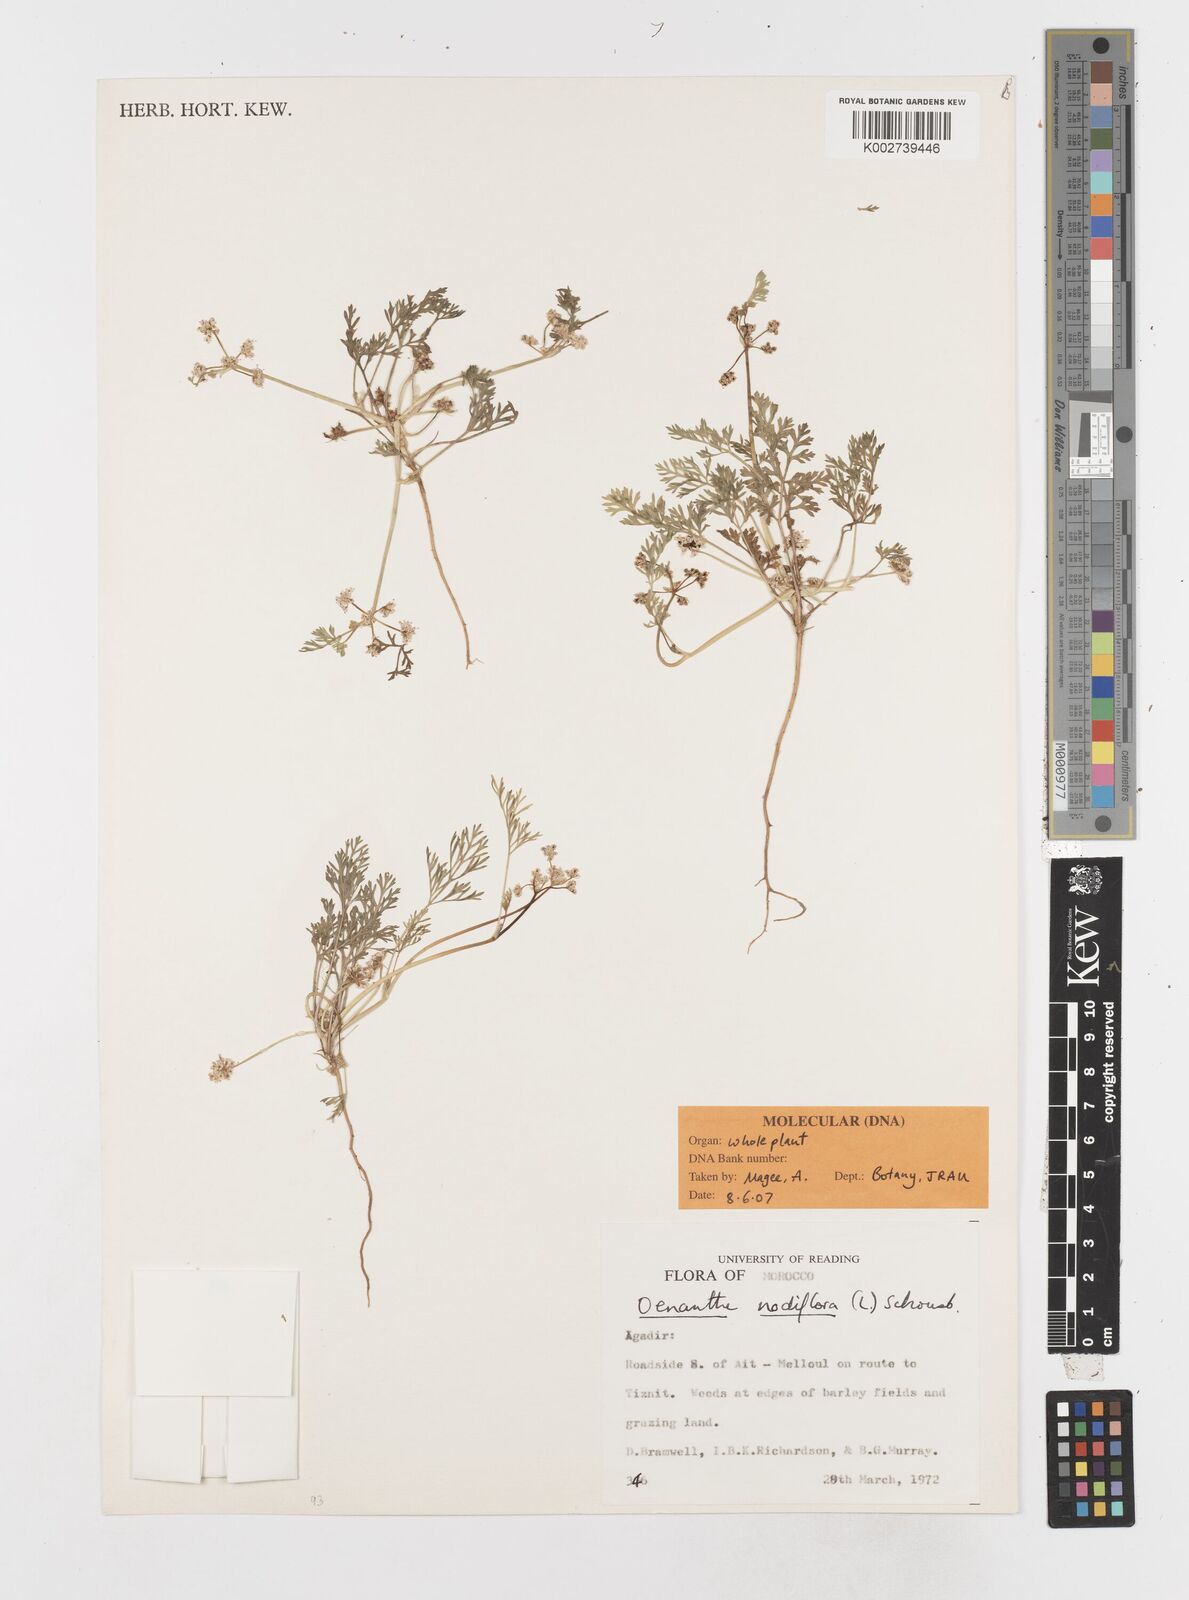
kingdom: Plantae
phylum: Tracheophyta
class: Magnoliopsida
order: Apiales
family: Apiaceae
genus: Sclerosciadium
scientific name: Sclerosciadium nodiflorum
